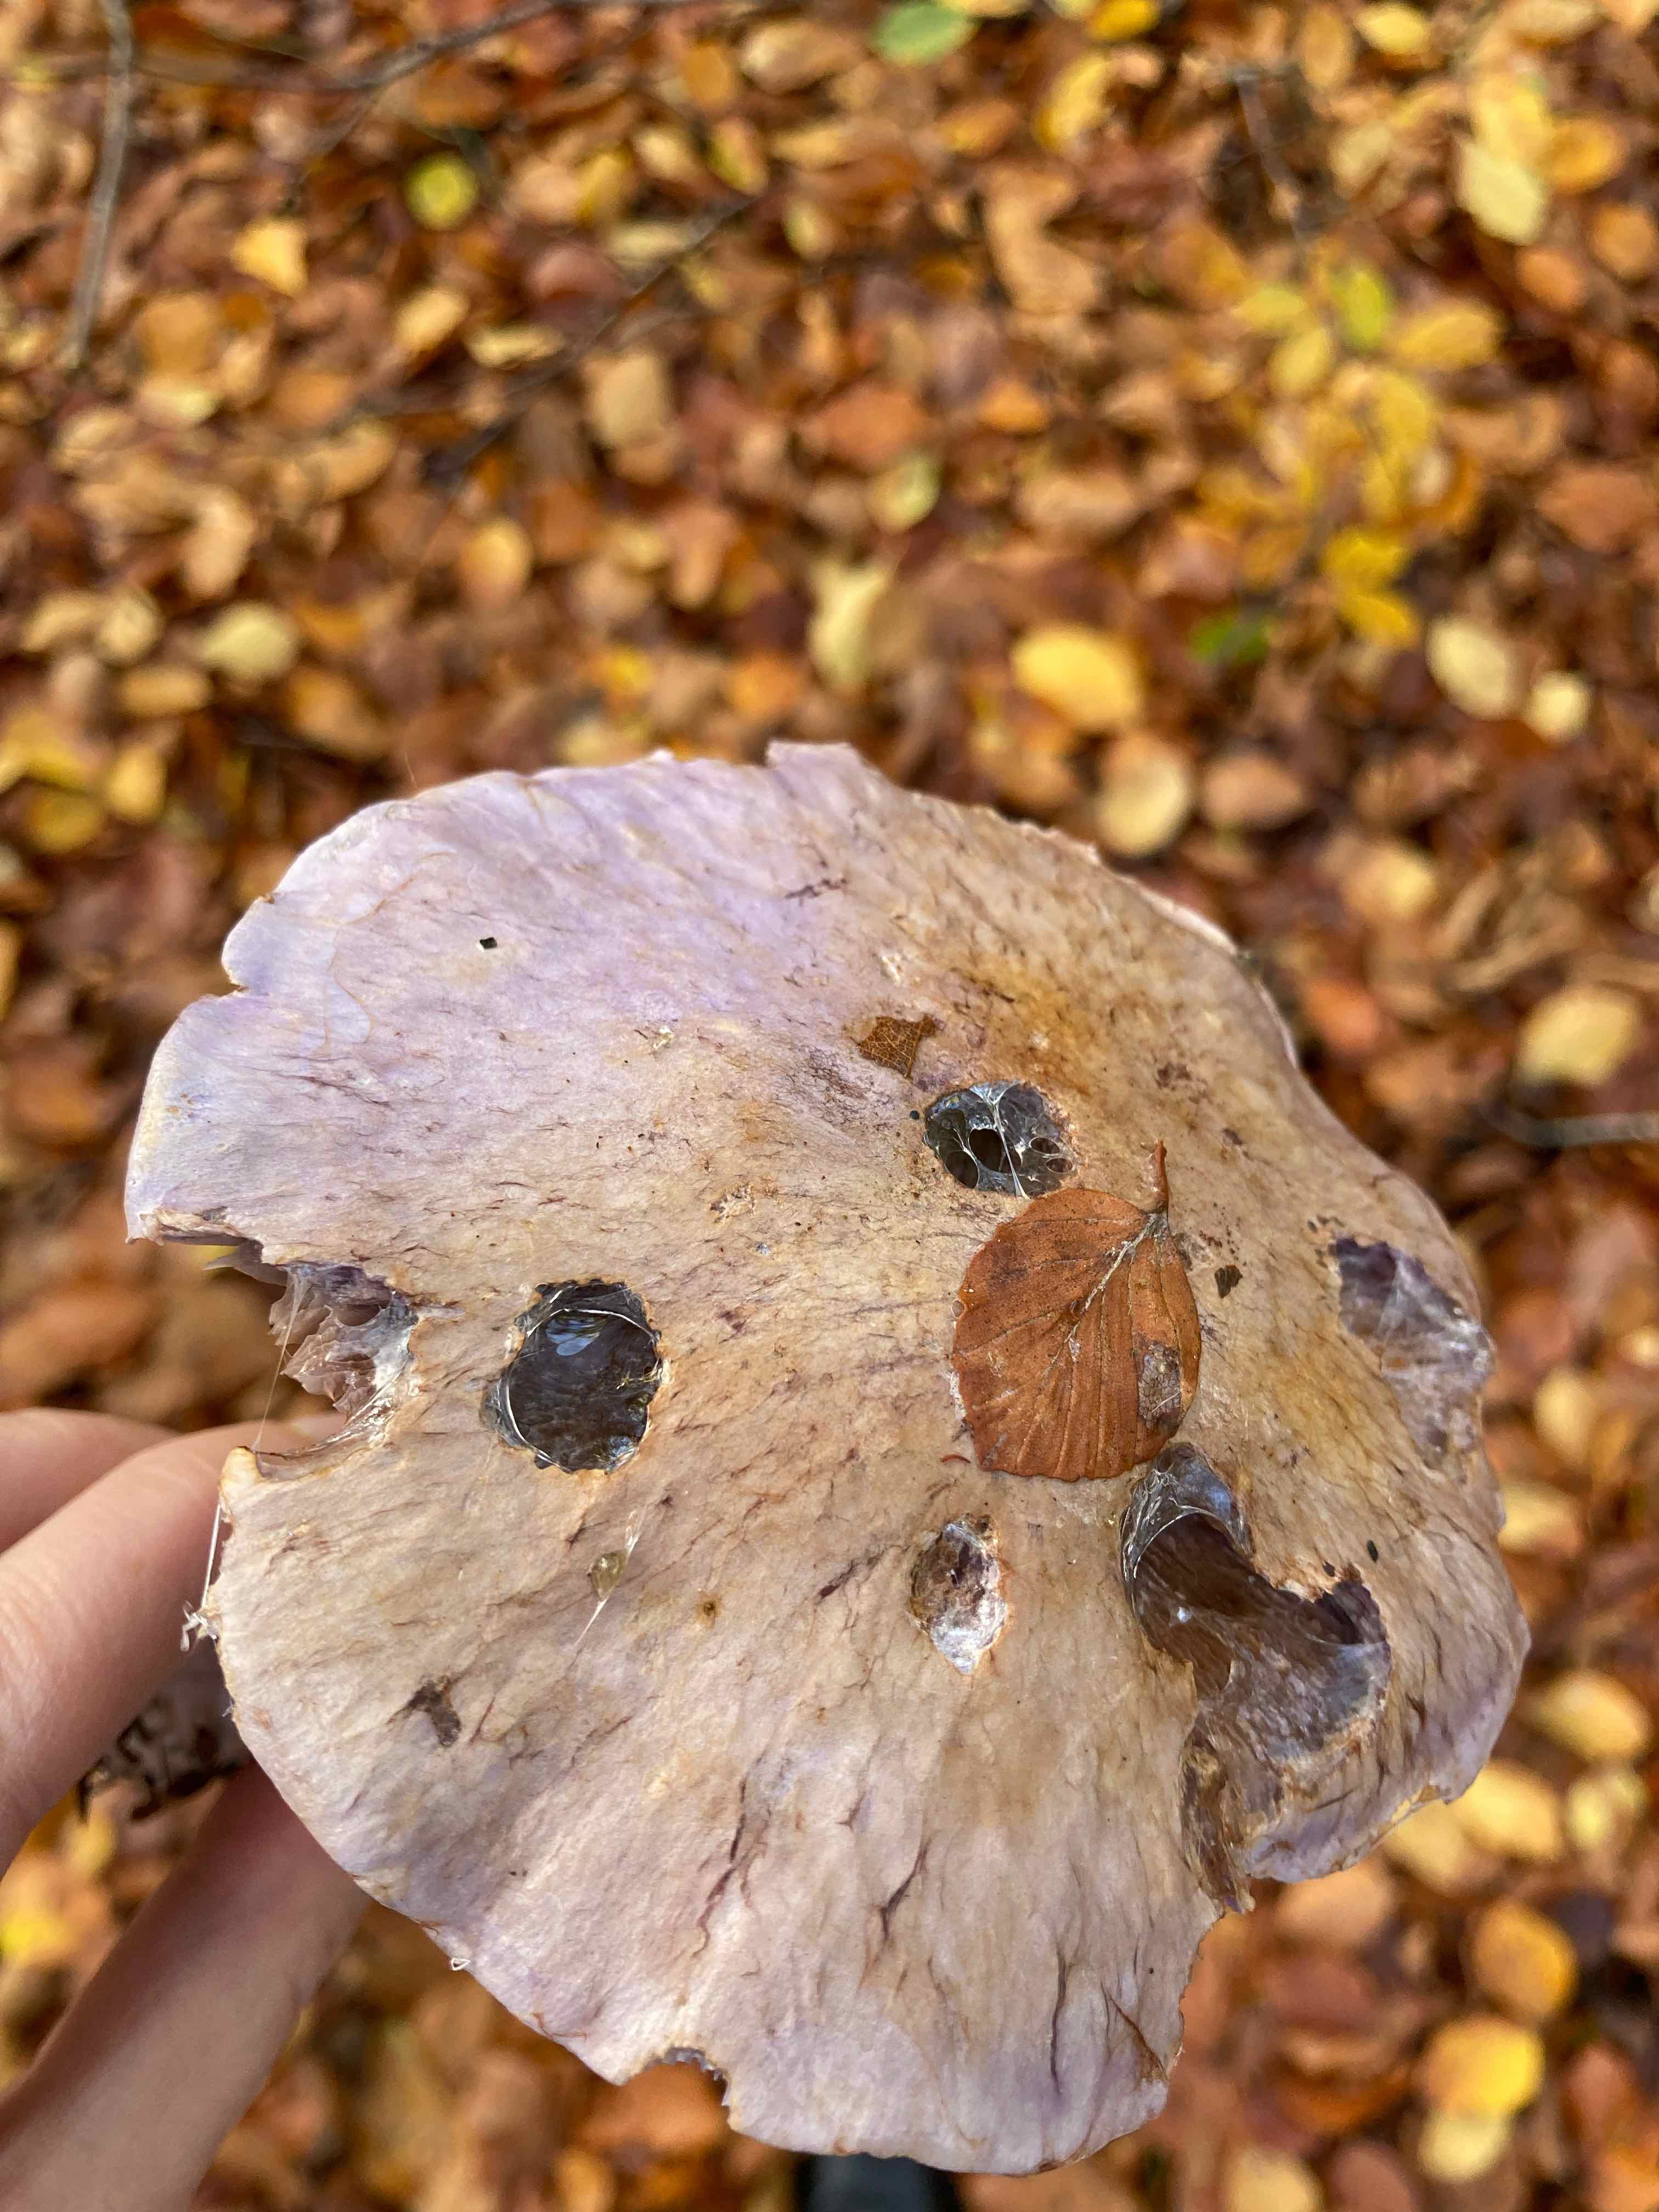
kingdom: Fungi
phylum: Basidiomycota
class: Agaricomycetes
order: Agaricales
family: Cortinariaceae
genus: Phlegmacium
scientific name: Phlegmacium
